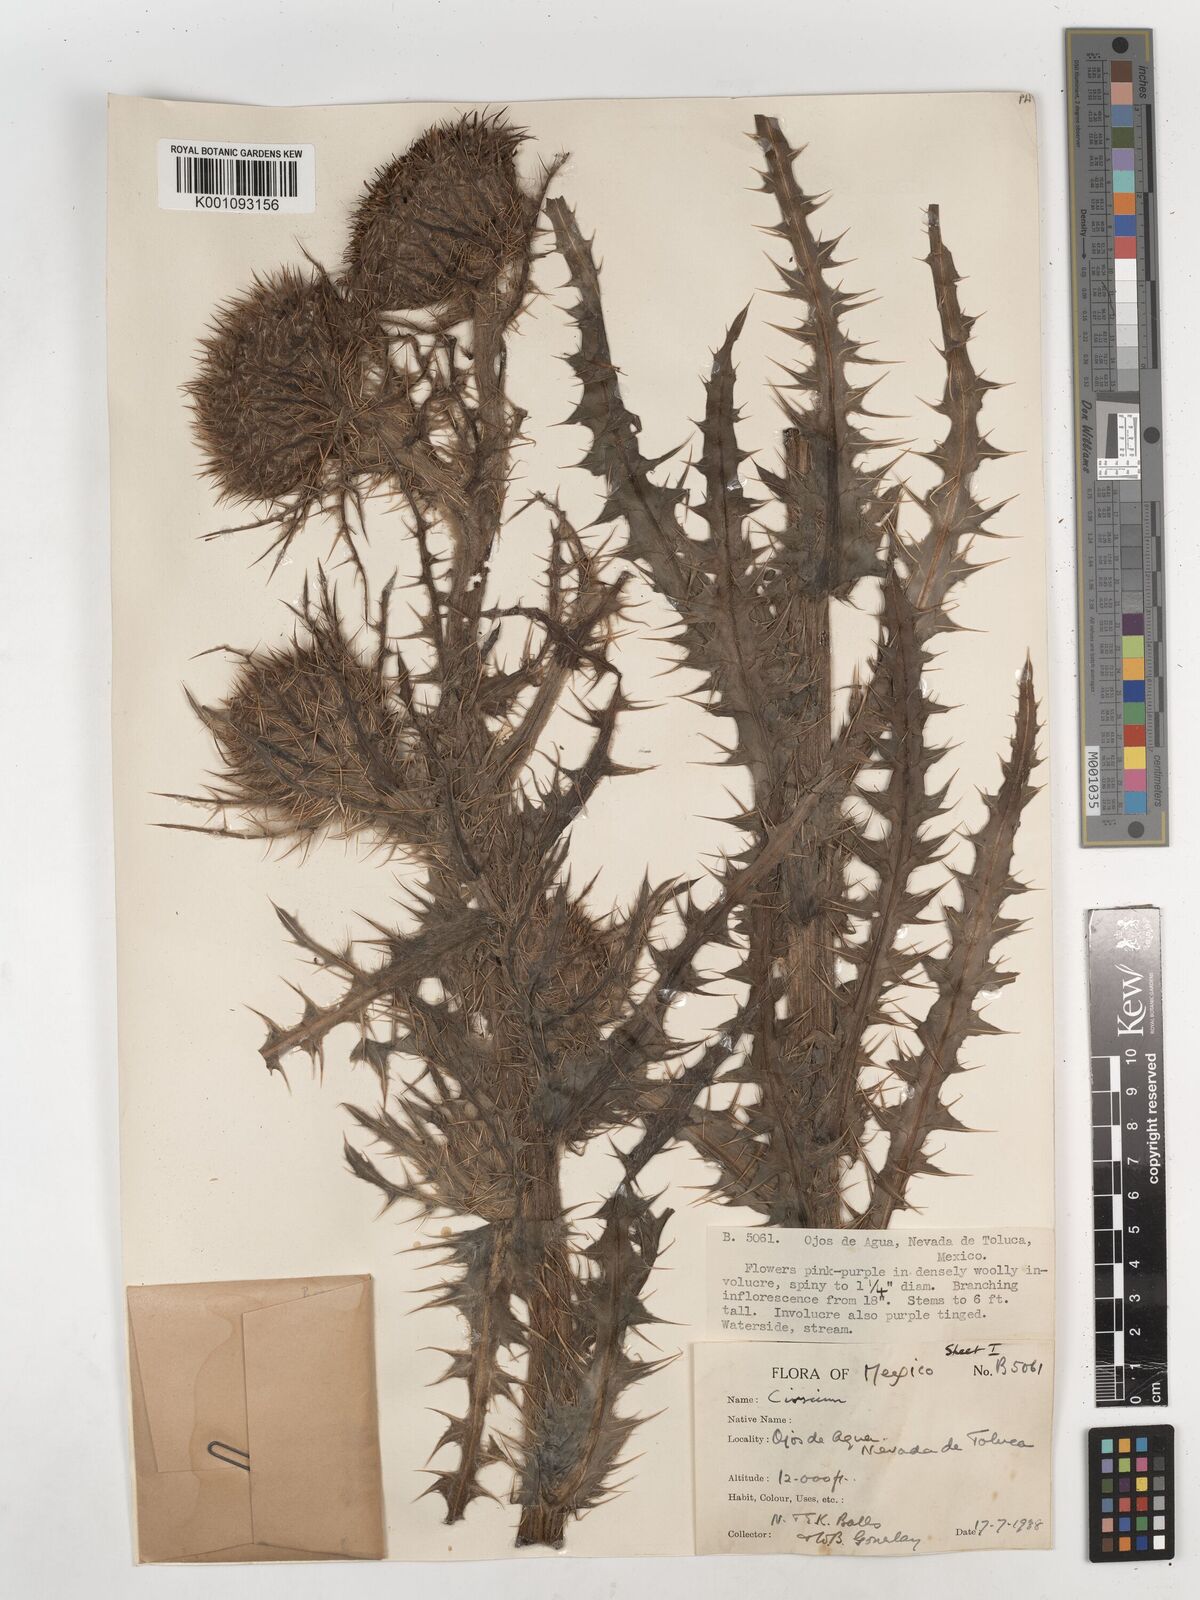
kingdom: Plantae
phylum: Tracheophyta
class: Magnoliopsida
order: Asterales
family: Asteraceae
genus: Cirsium
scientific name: Cirsium
